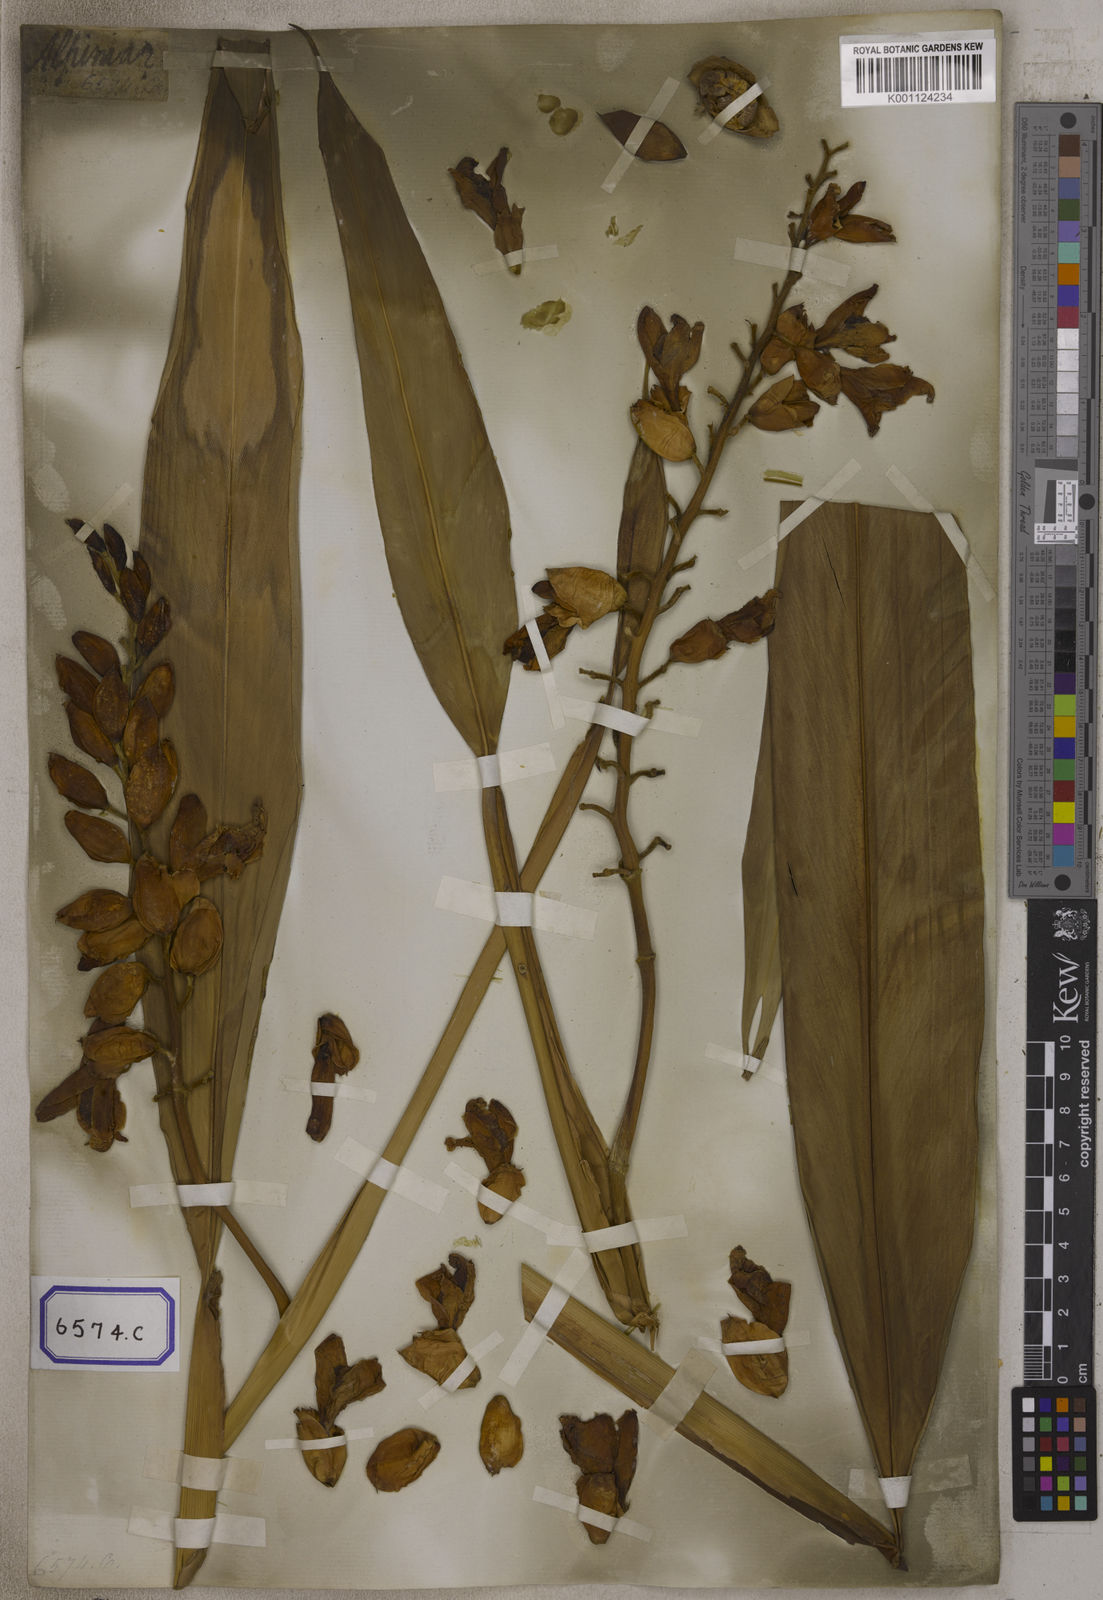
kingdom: Plantae
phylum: Tracheophyta
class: Liliopsida
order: Zingiberales
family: Zingiberaceae
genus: Alpinia
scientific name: Alpinia nutans
